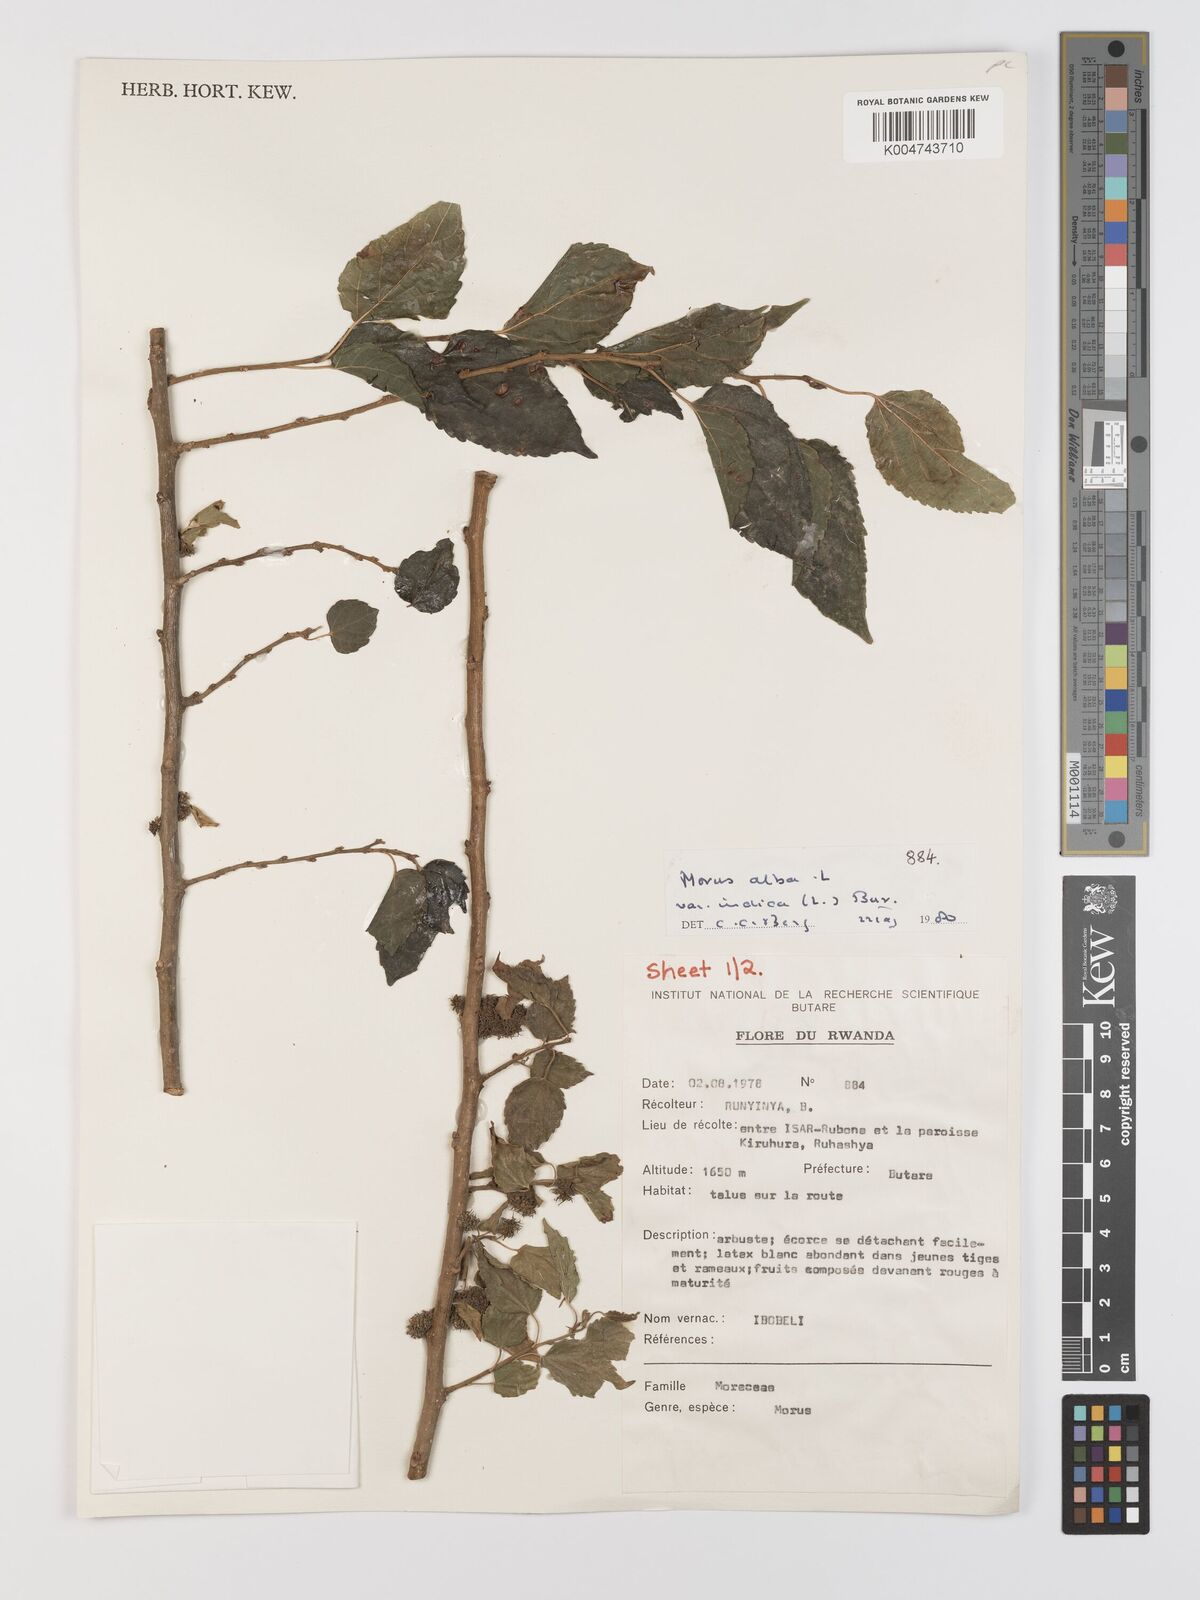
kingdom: Plantae
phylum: Tracheophyta
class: Magnoliopsida
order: Rosales
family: Moraceae
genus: Morus
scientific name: Morus alba
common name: White mulberry
